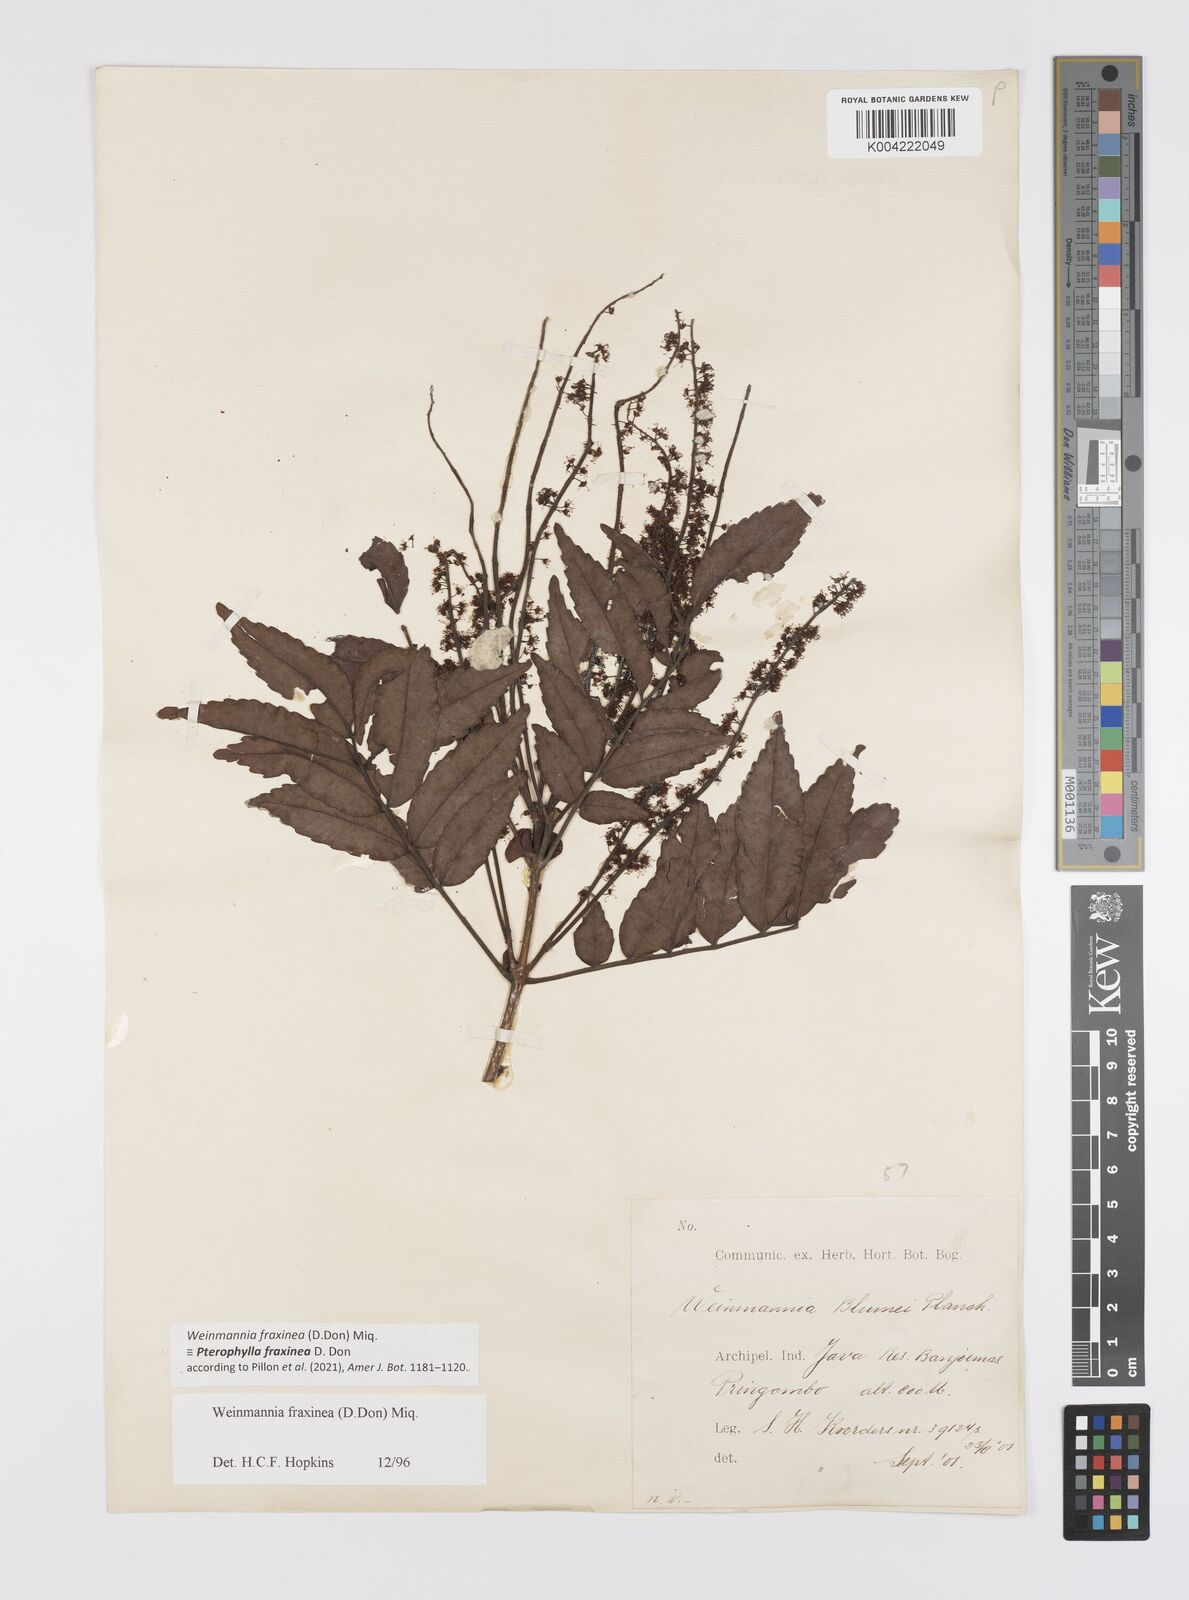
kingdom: Plantae
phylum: Tracheophyta
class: Magnoliopsida
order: Oxalidales
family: Cunoniaceae
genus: Pterophylla
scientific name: Pterophylla fraxinea
